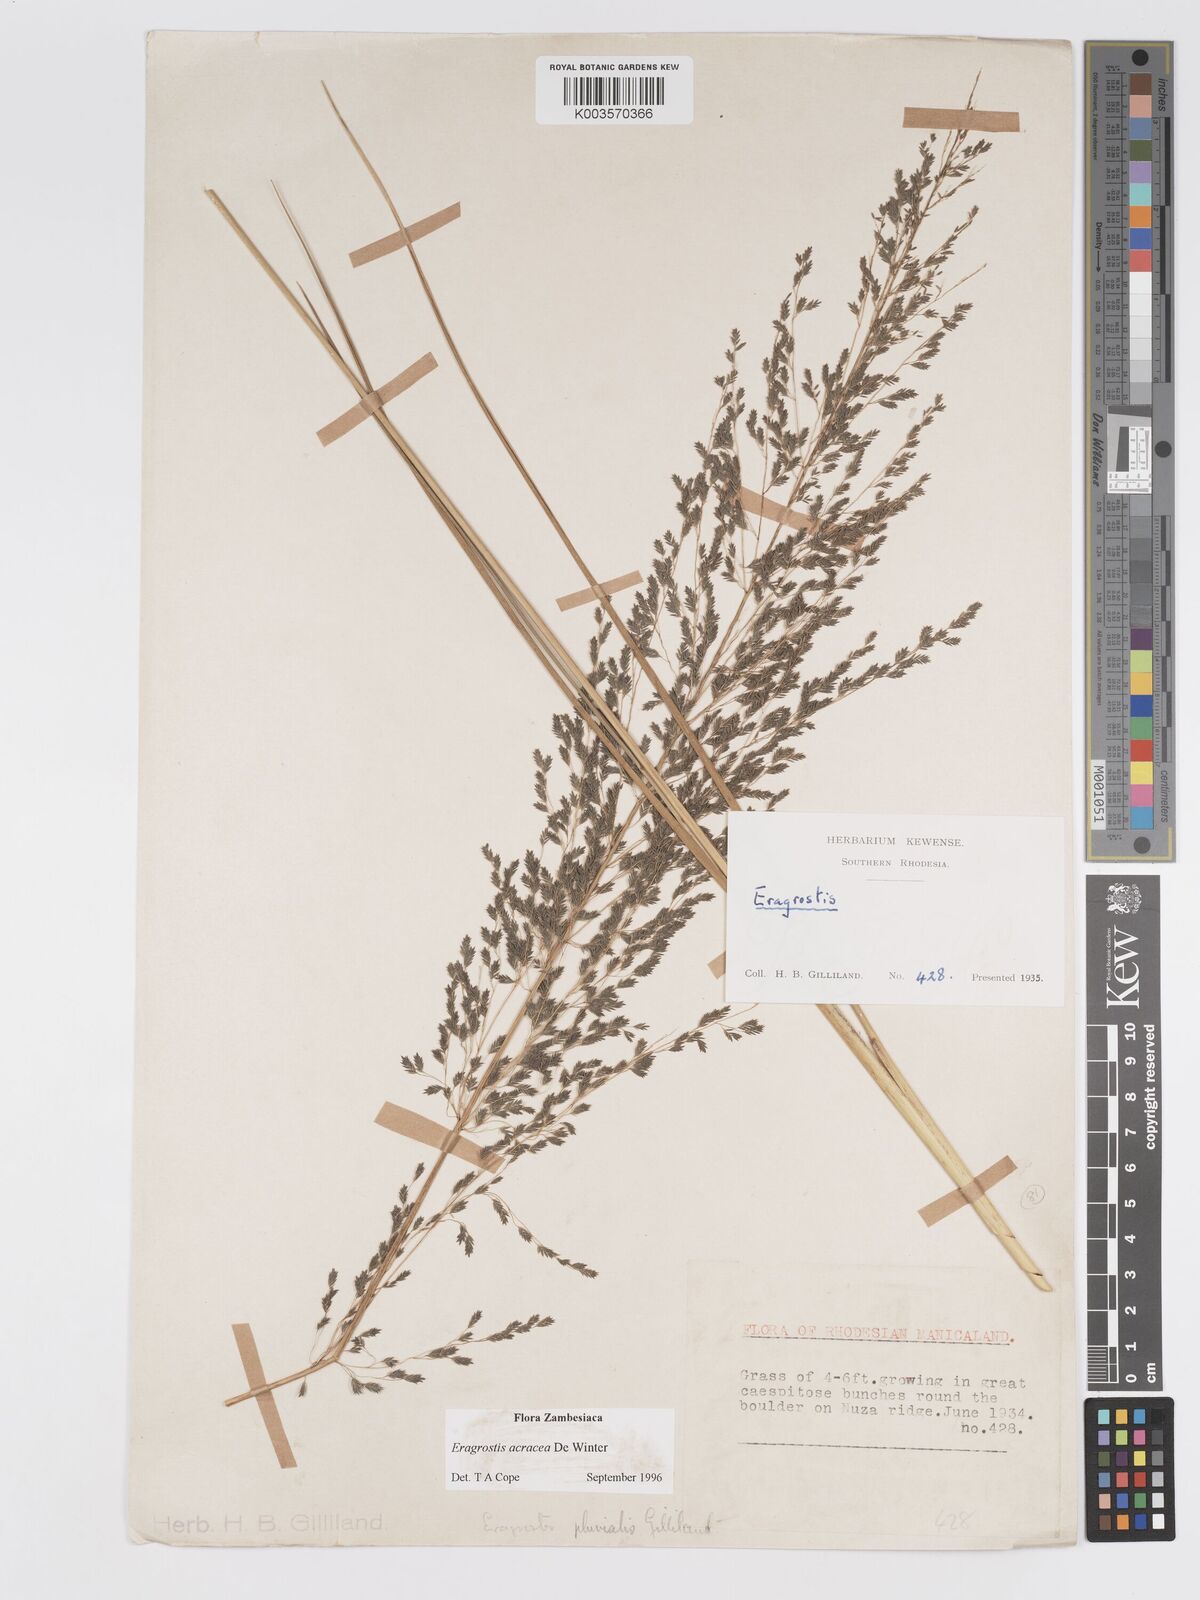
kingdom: Plantae
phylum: Tracheophyta
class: Liliopsida
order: Poales
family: Poaceae
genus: Eragrostis
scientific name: Eragrostis acraea
